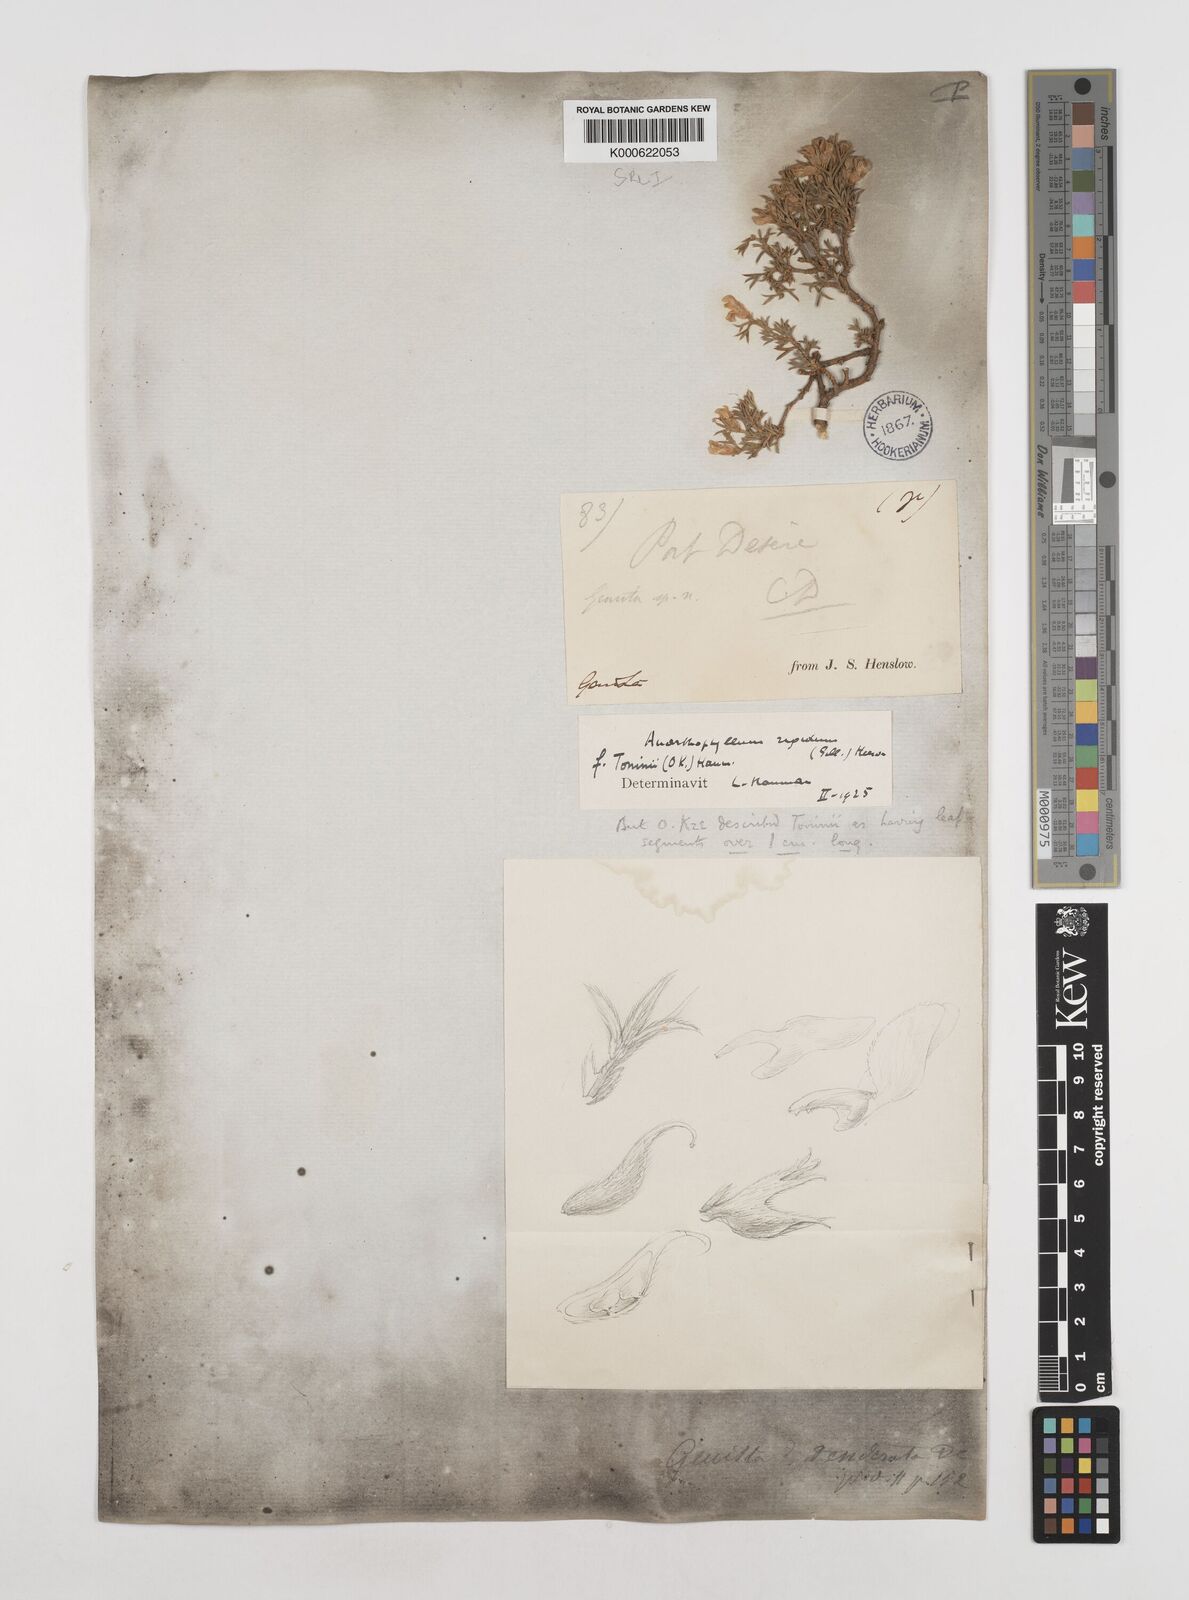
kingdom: Plantae
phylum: Tracheophyta
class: Magnoliopsida
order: Fabales
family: Fabaceae
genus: Anarthrophyllum
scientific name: Anarthrophyllum rigidum
